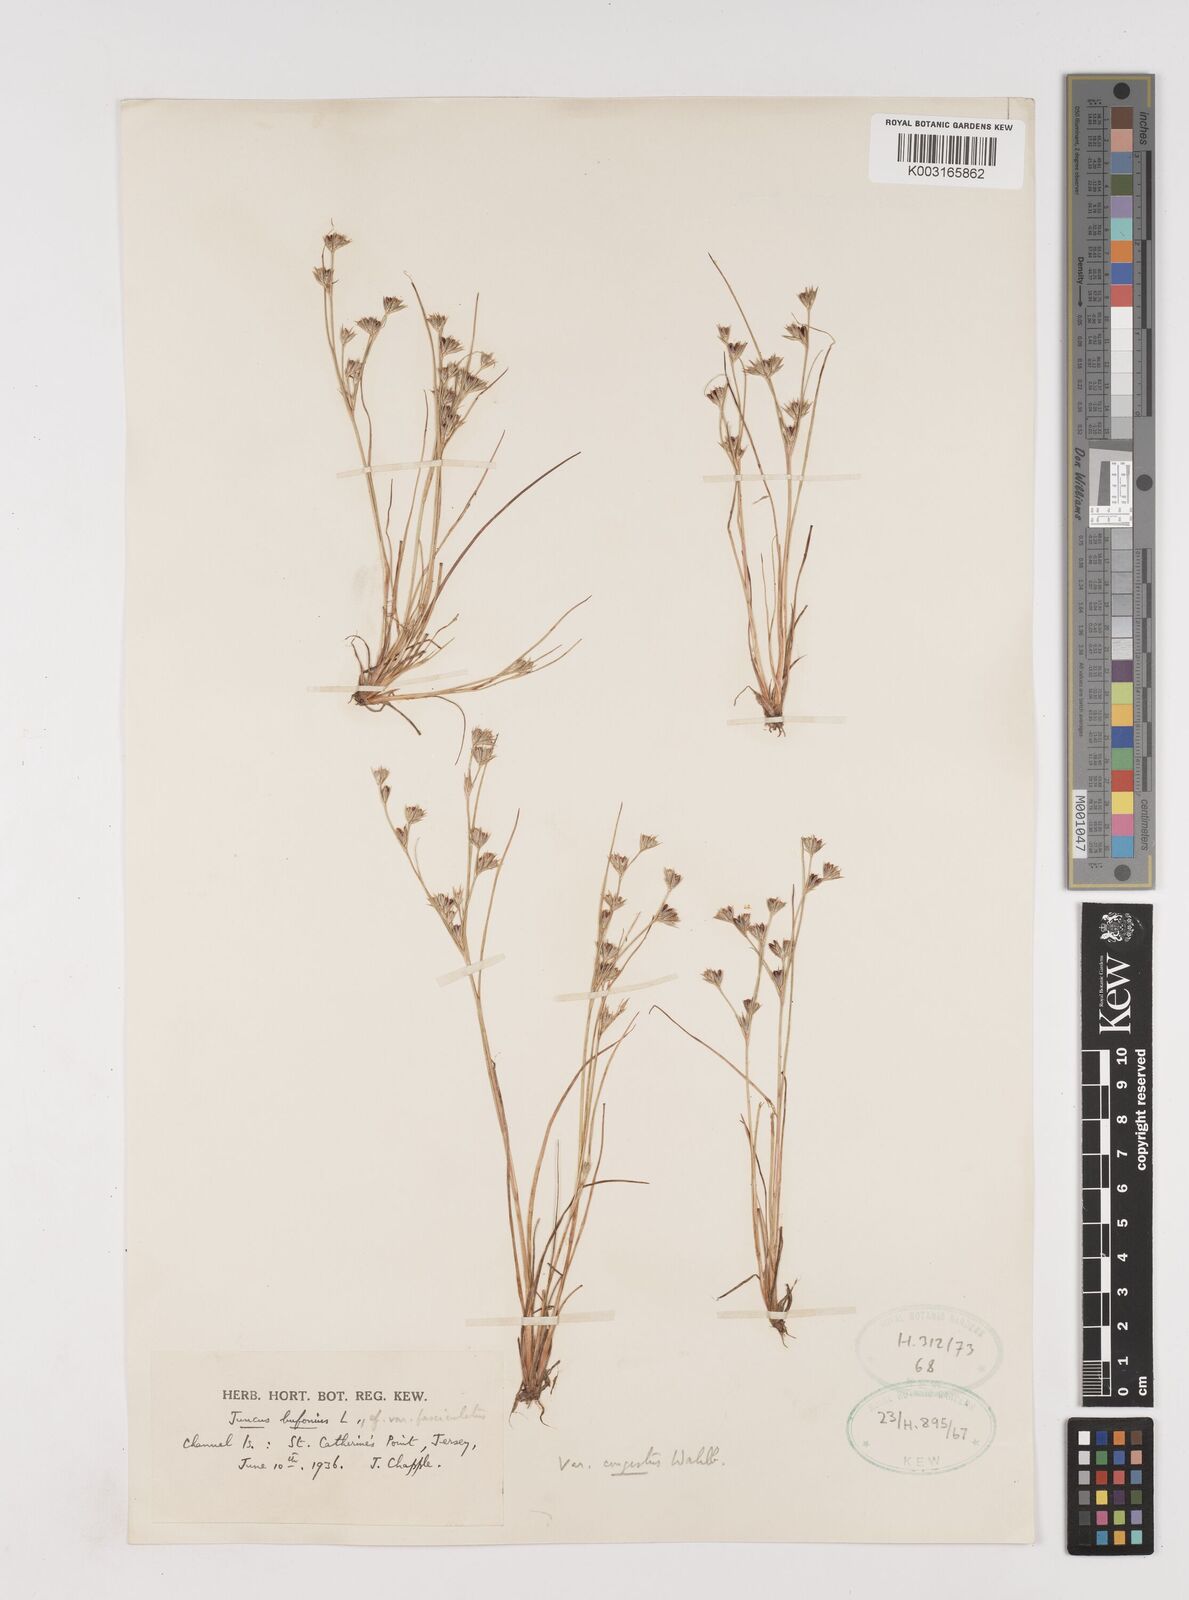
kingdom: Plantae
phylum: Tracheophyta
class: Liliopsida
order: Poales
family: Juncaceae
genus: Juncus
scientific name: Juncus bufonius
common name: Toad rush
